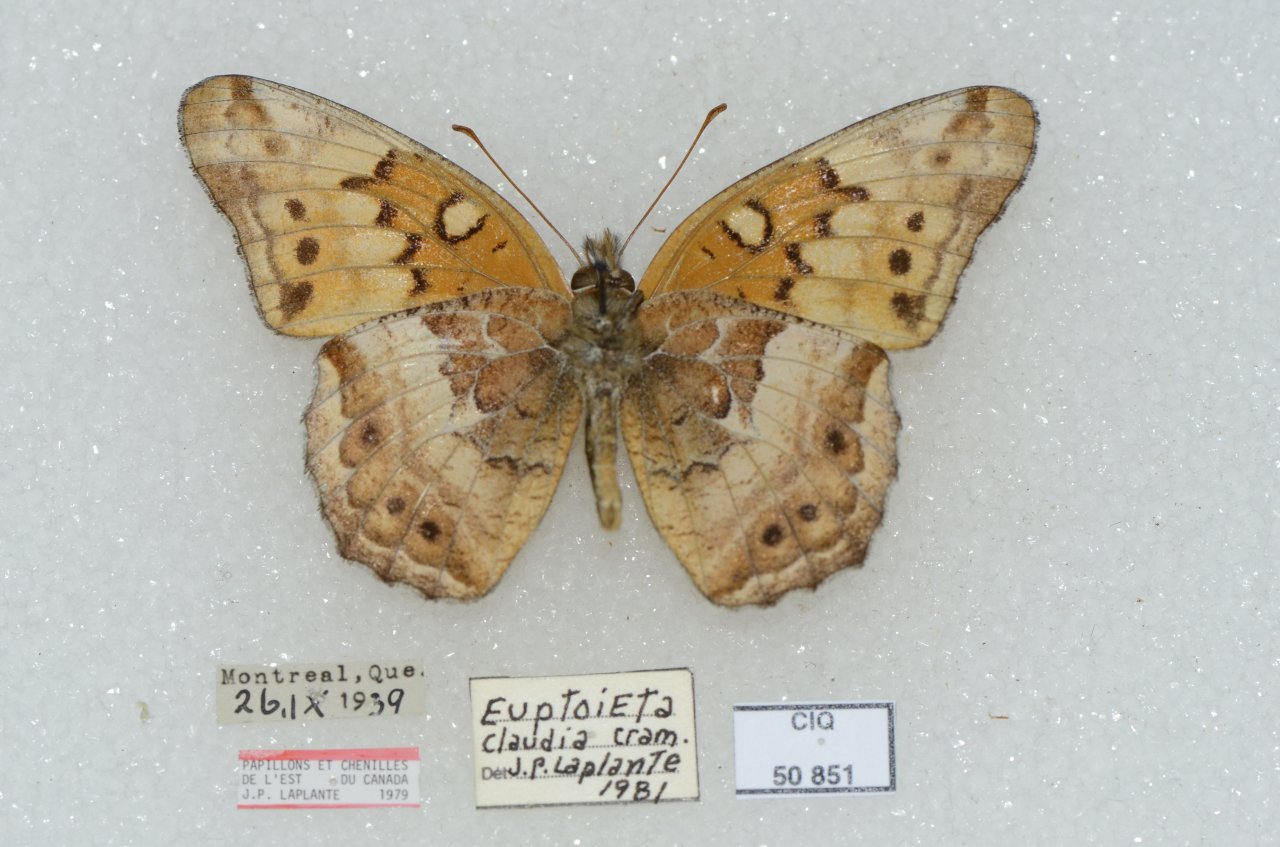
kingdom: Animalia
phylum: Arthropoda
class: Insecta
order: Lepidoptera
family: Nymphalidae
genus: Euptoieta
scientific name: Euptoieta claudia
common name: Variegated Fritillary
